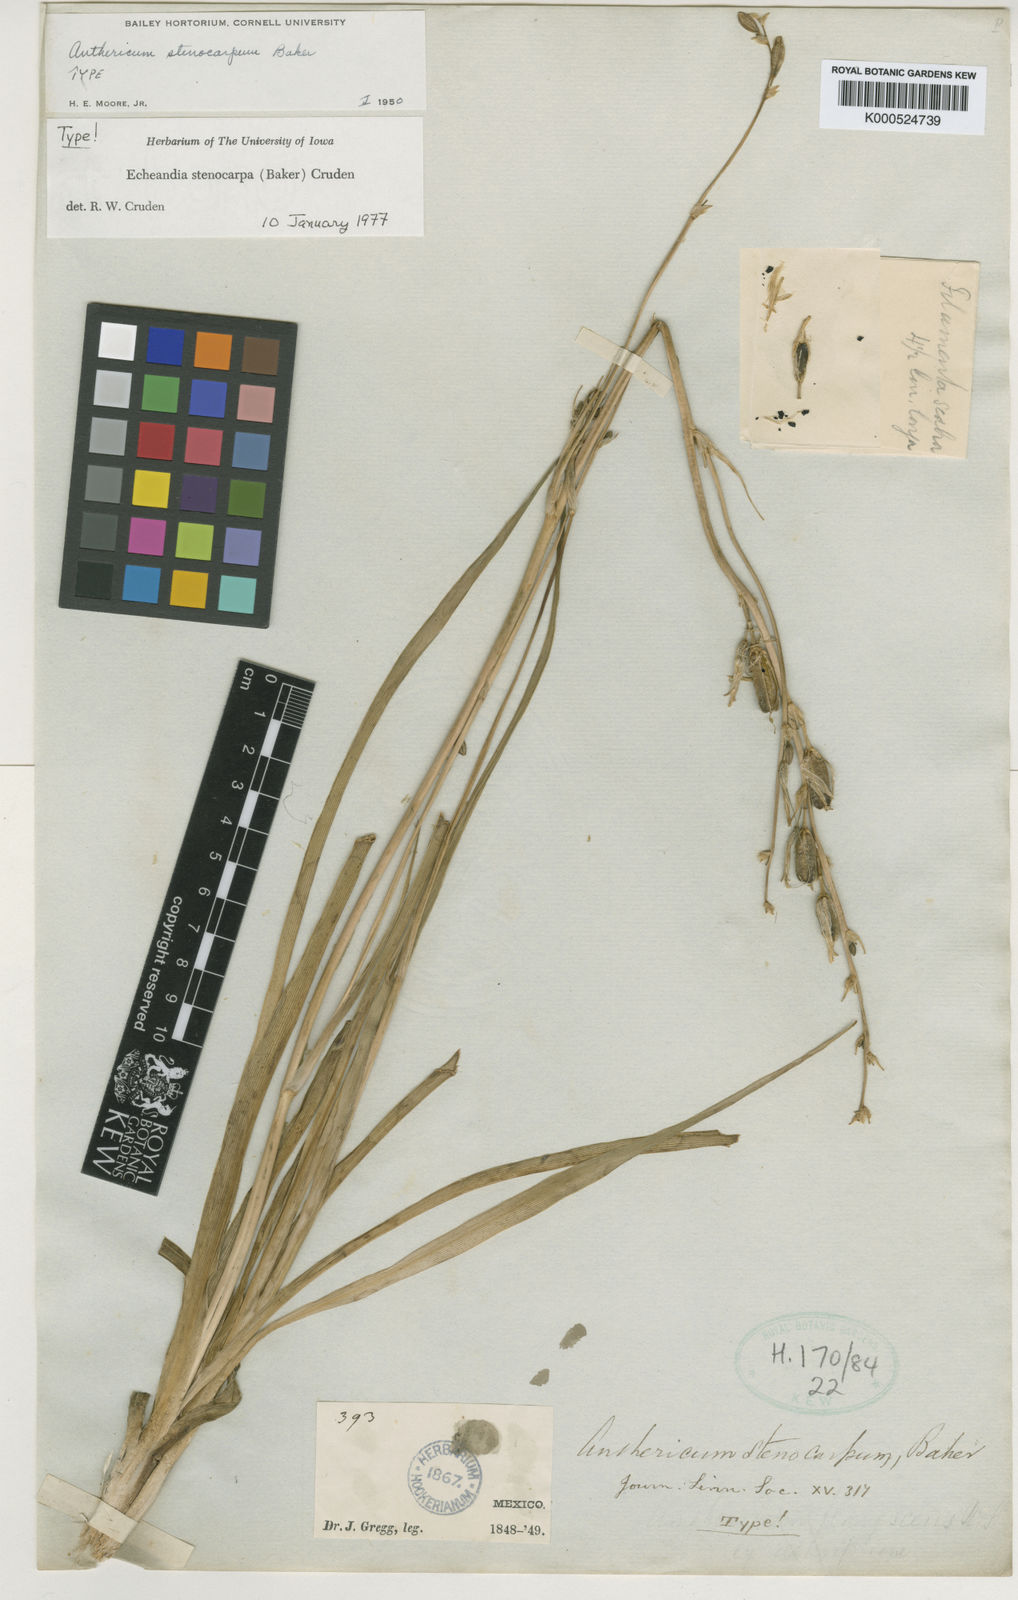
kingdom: Plantae
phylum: Tracheophyta
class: Liliopsida
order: Asparagales
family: Asparagaceae
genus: Echeandia
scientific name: Echeandia
